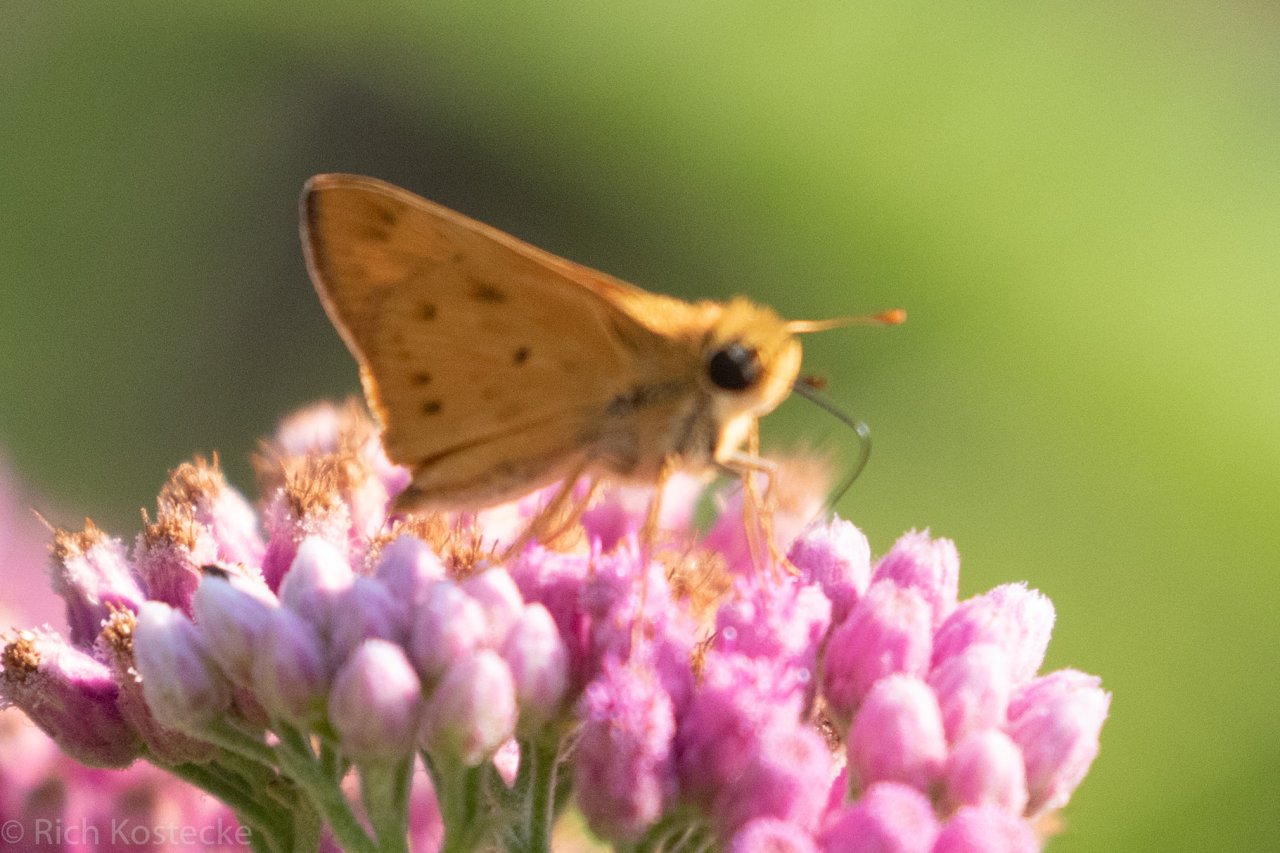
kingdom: Animalia
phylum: Arthropoda
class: Insecta
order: Lepidoptera
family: Hesperiidae
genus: Hylephila
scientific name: Hylephila phyleus
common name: Fiery Skipper
